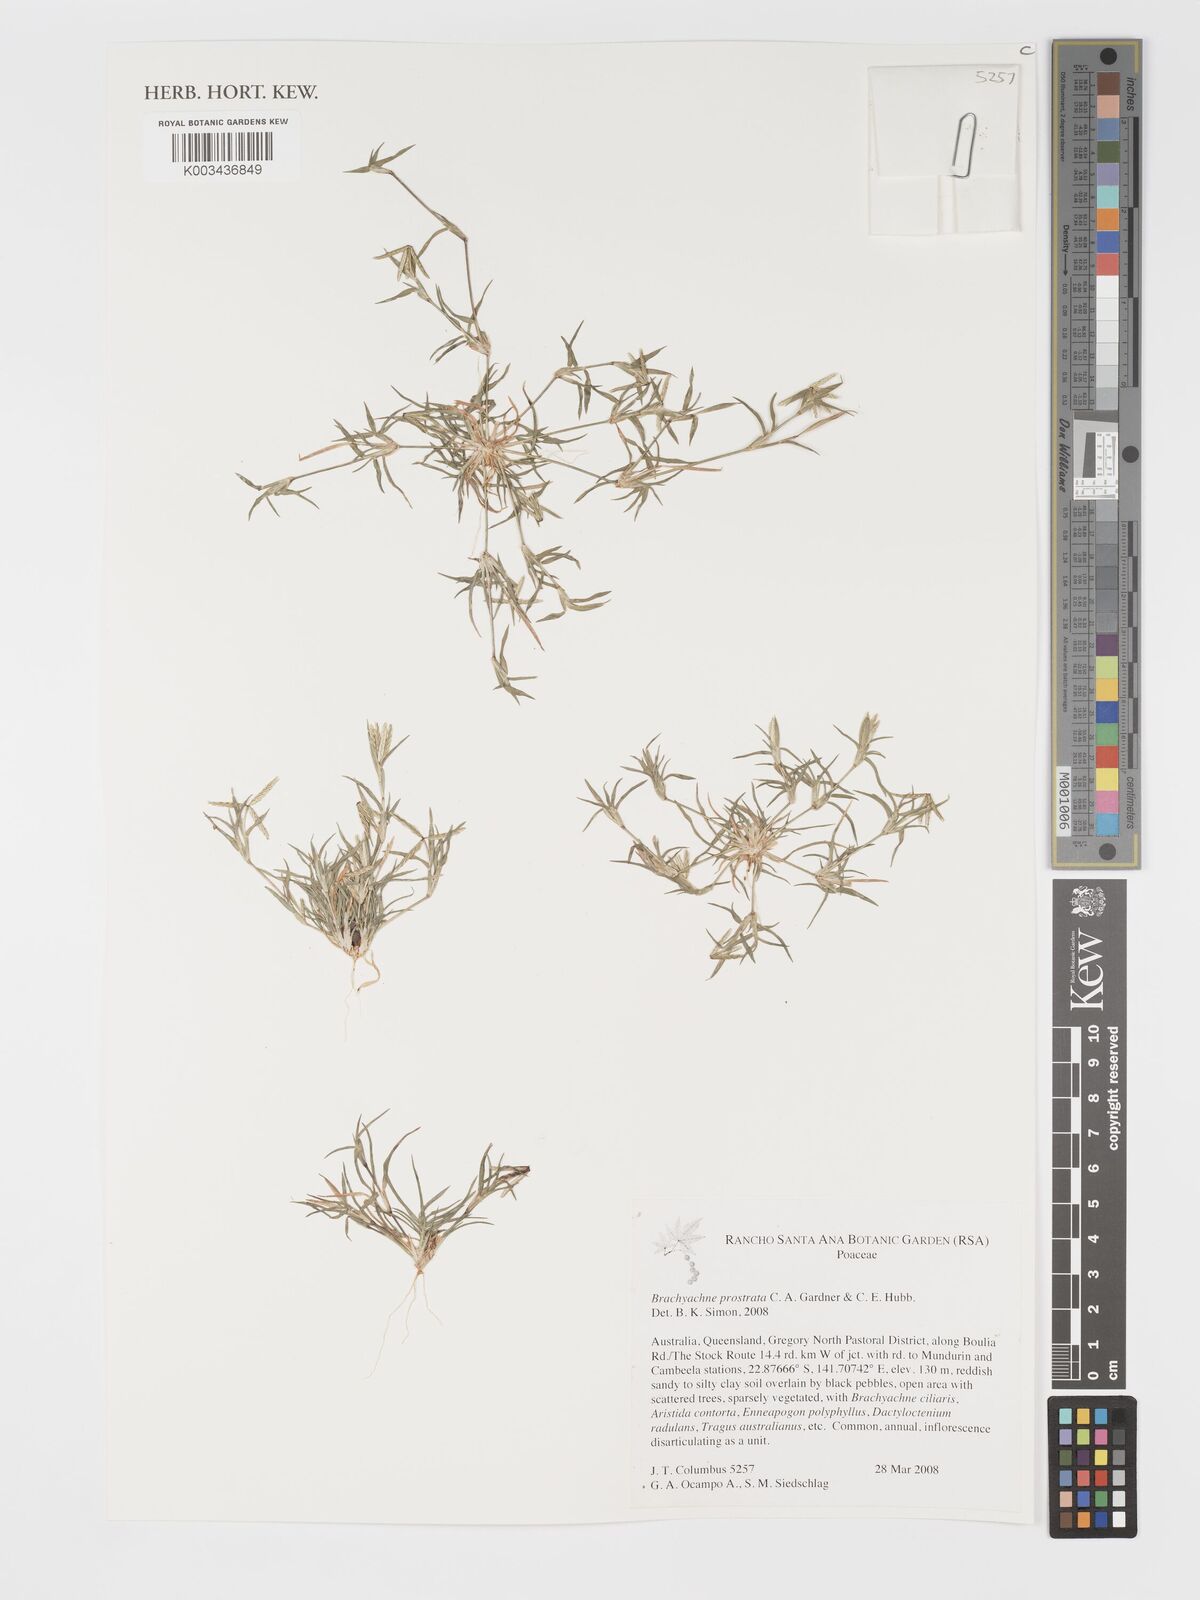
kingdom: Plantae
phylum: Tracheophyta
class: Liliopsida
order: Poales
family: Poaceae
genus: Cynodon
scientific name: Cynodon prostratus
